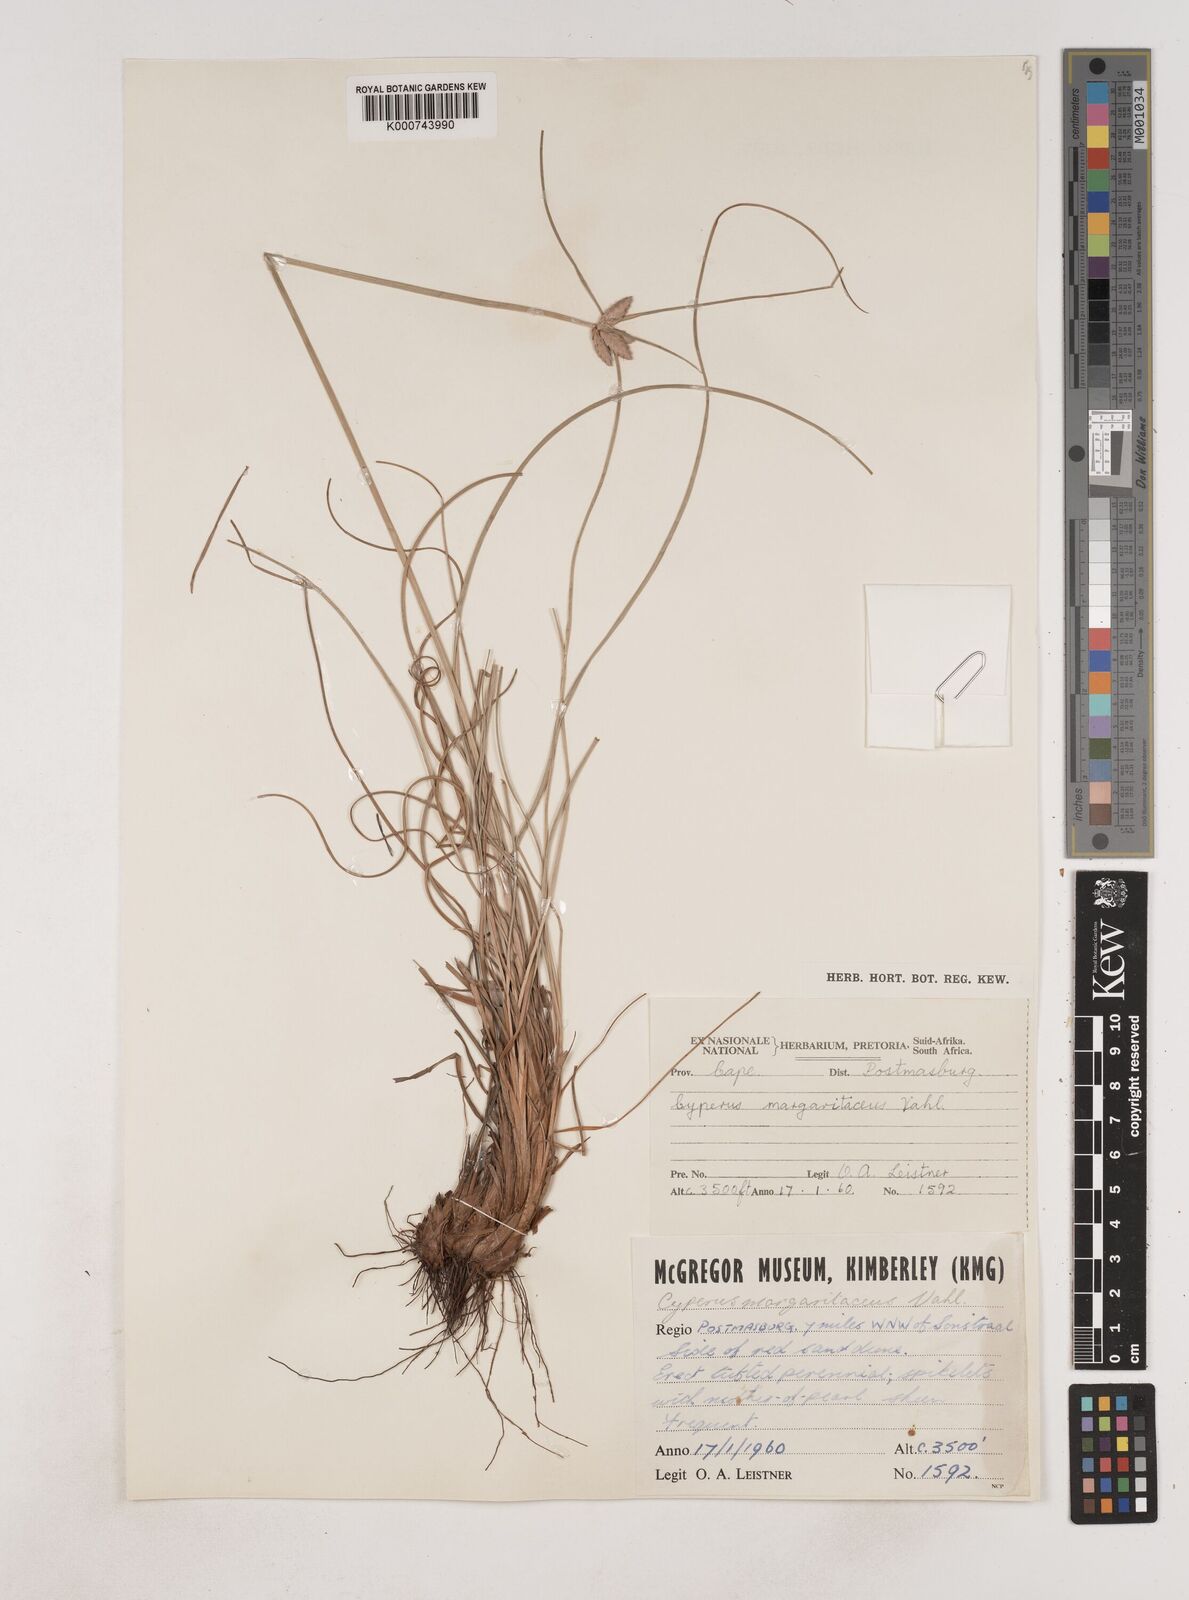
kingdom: Plantae
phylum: Tracheophyta
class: Liliopsida
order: Poales
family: Cyperaceae
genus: Cyperus
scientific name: Cyperus margaritaceus
